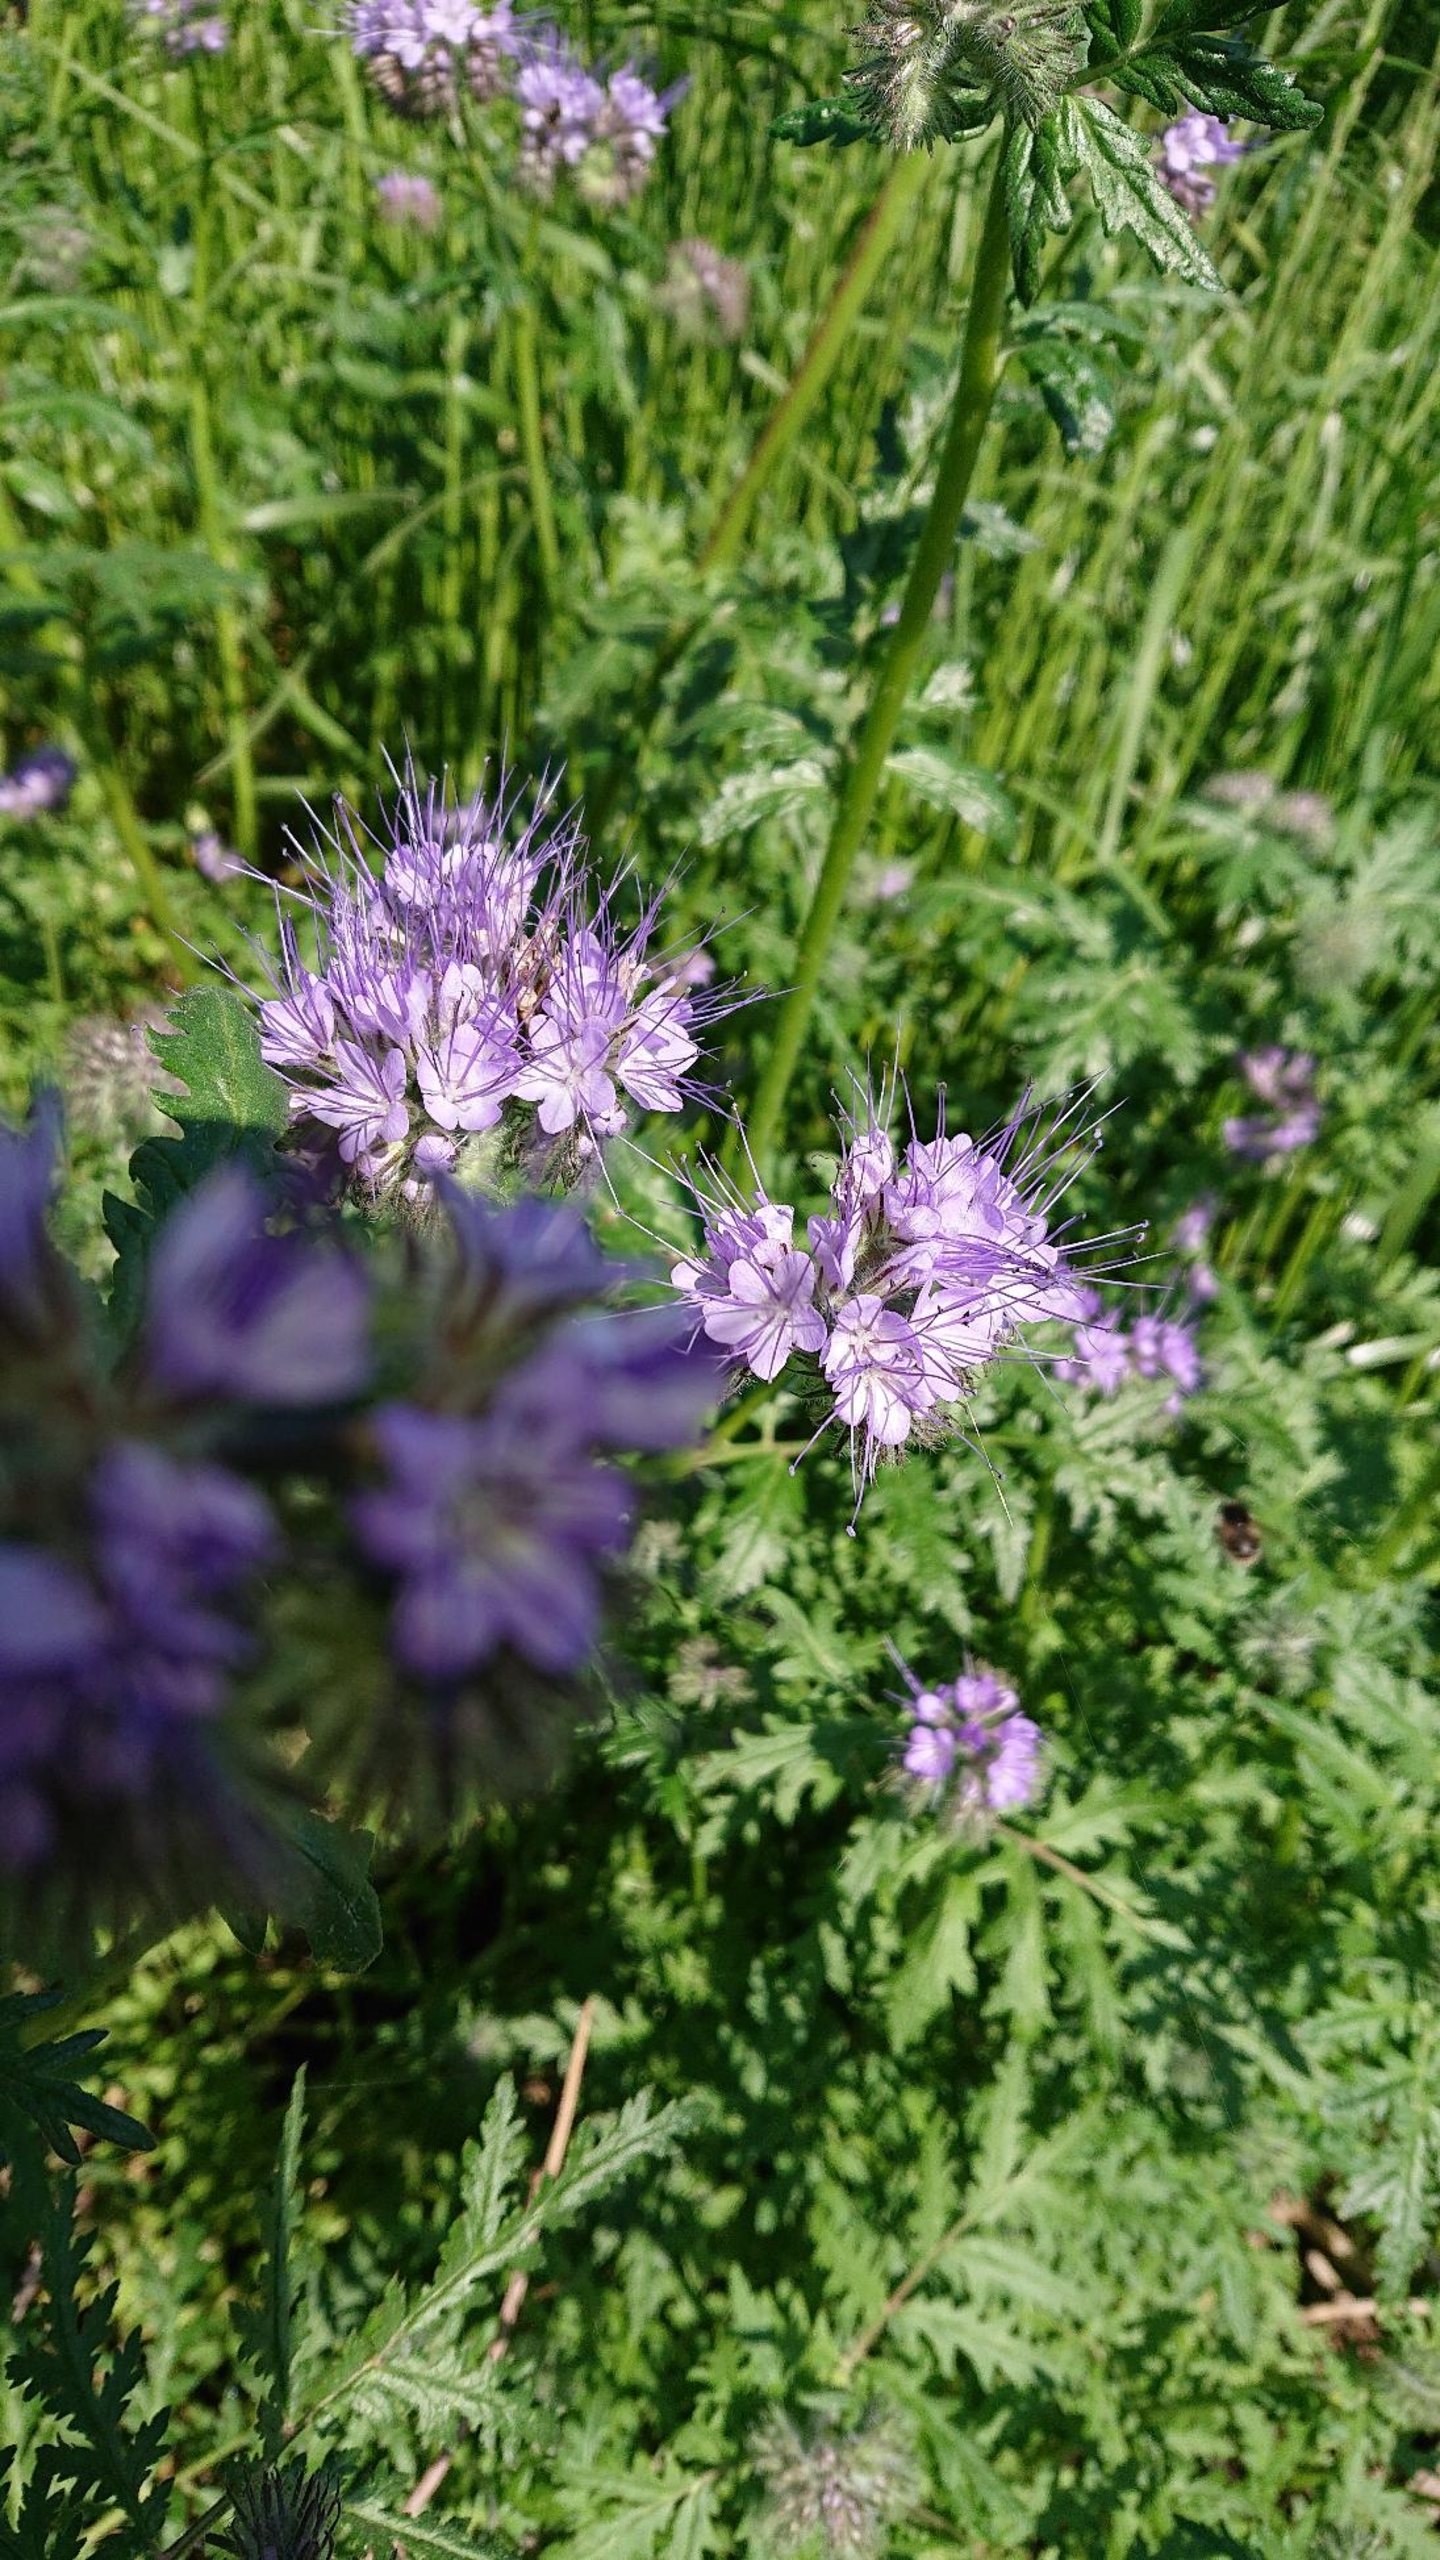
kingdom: Plantae
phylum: Tracheophyta
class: Magnoliopsida
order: Boraginales
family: Hydrophyllaceae
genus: Phacelia
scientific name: Phacelia tanacetifolia
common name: Honningurt
